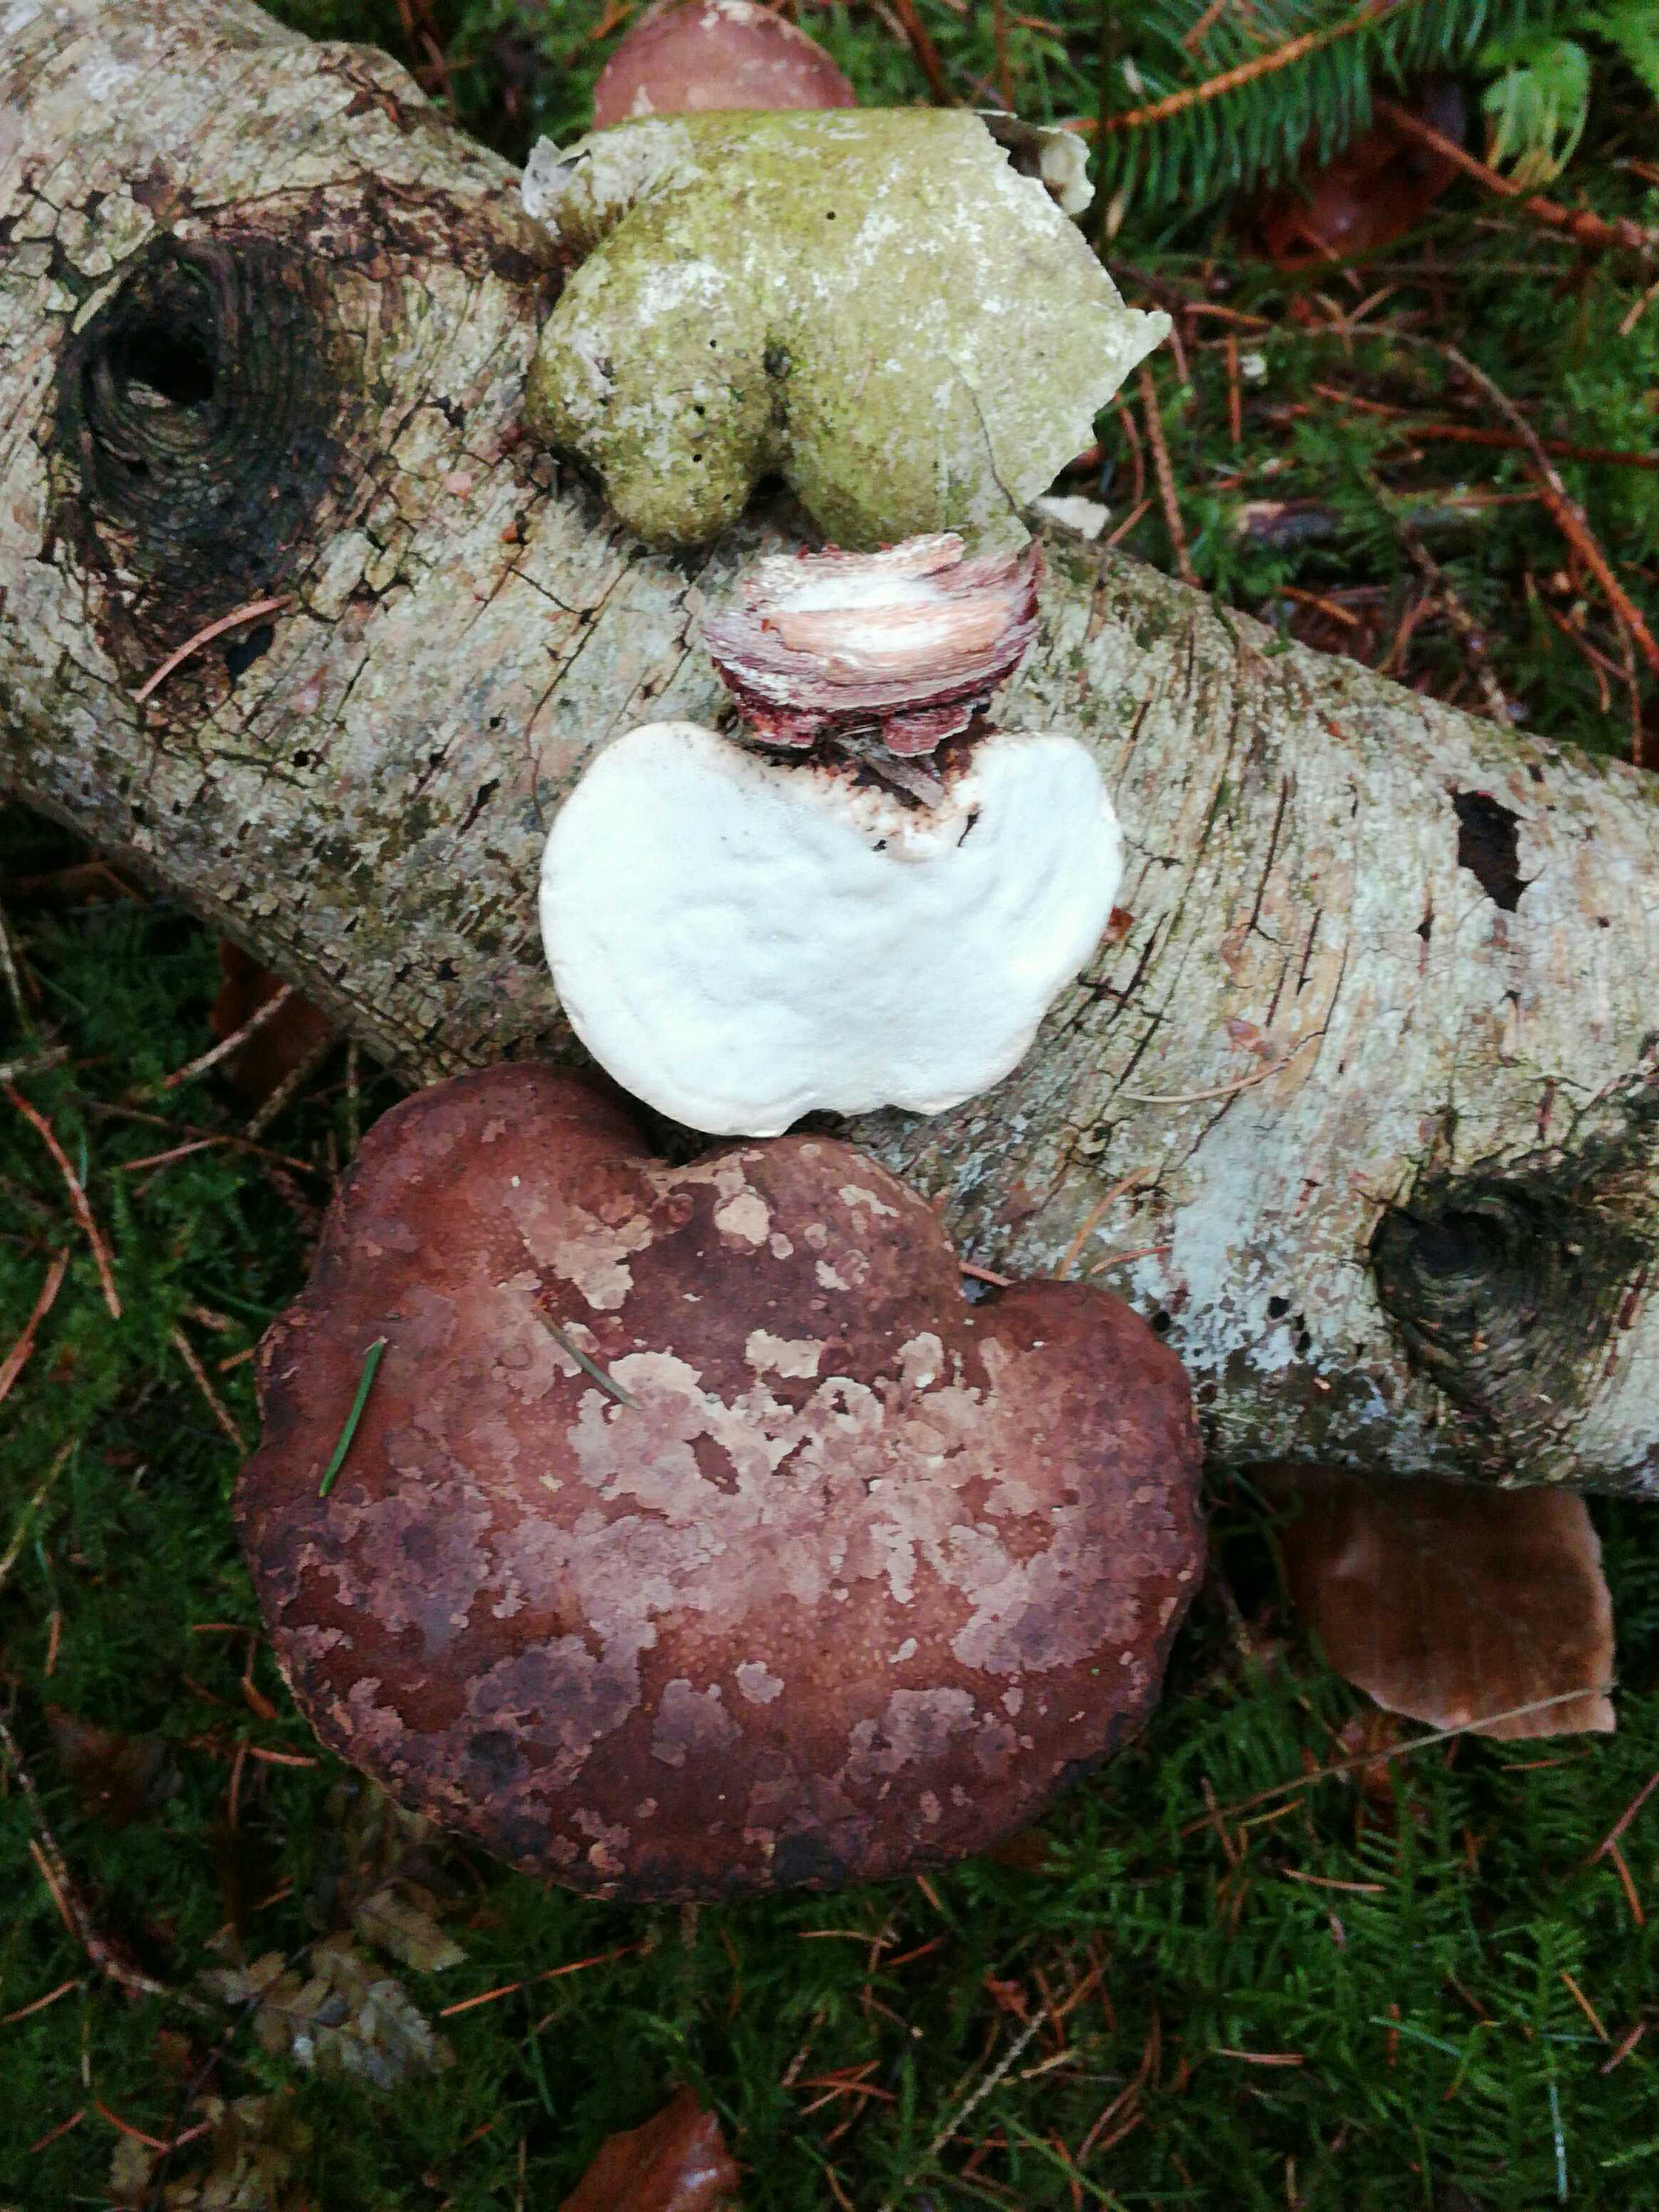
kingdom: Fungi
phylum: Basidiomycota
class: Agaricomycetes
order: Polyporales
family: Fomitopsidaceae
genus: Fomitopsis
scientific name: Fomitopsis betulina
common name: birkeporesvamp
